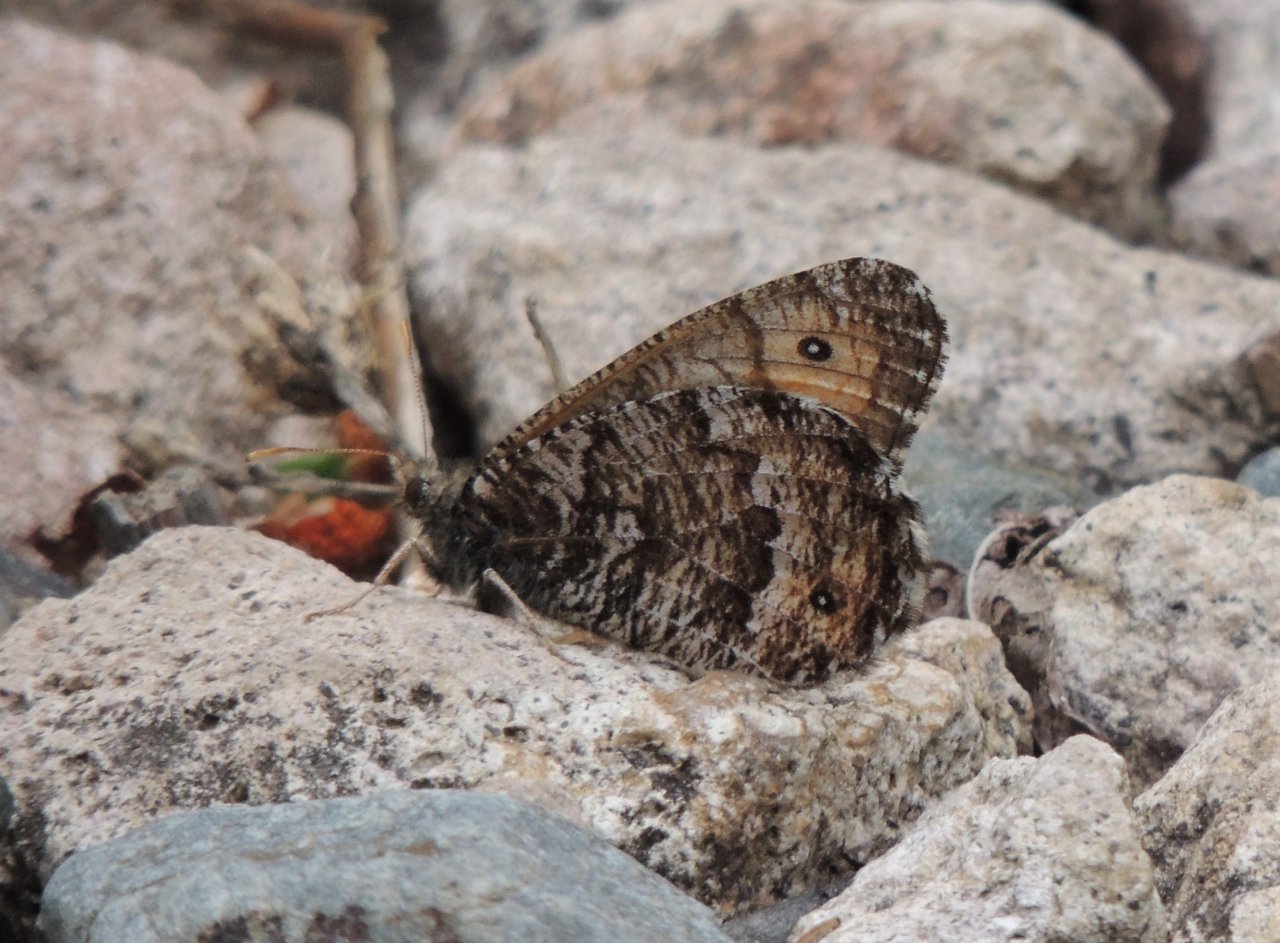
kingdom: Animalia
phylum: Arthropoda
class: Insecta
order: Lepidoptera
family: Nymphalidae
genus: Oeneis
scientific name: Oeneis chryxus
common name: Chryxus Arctic
